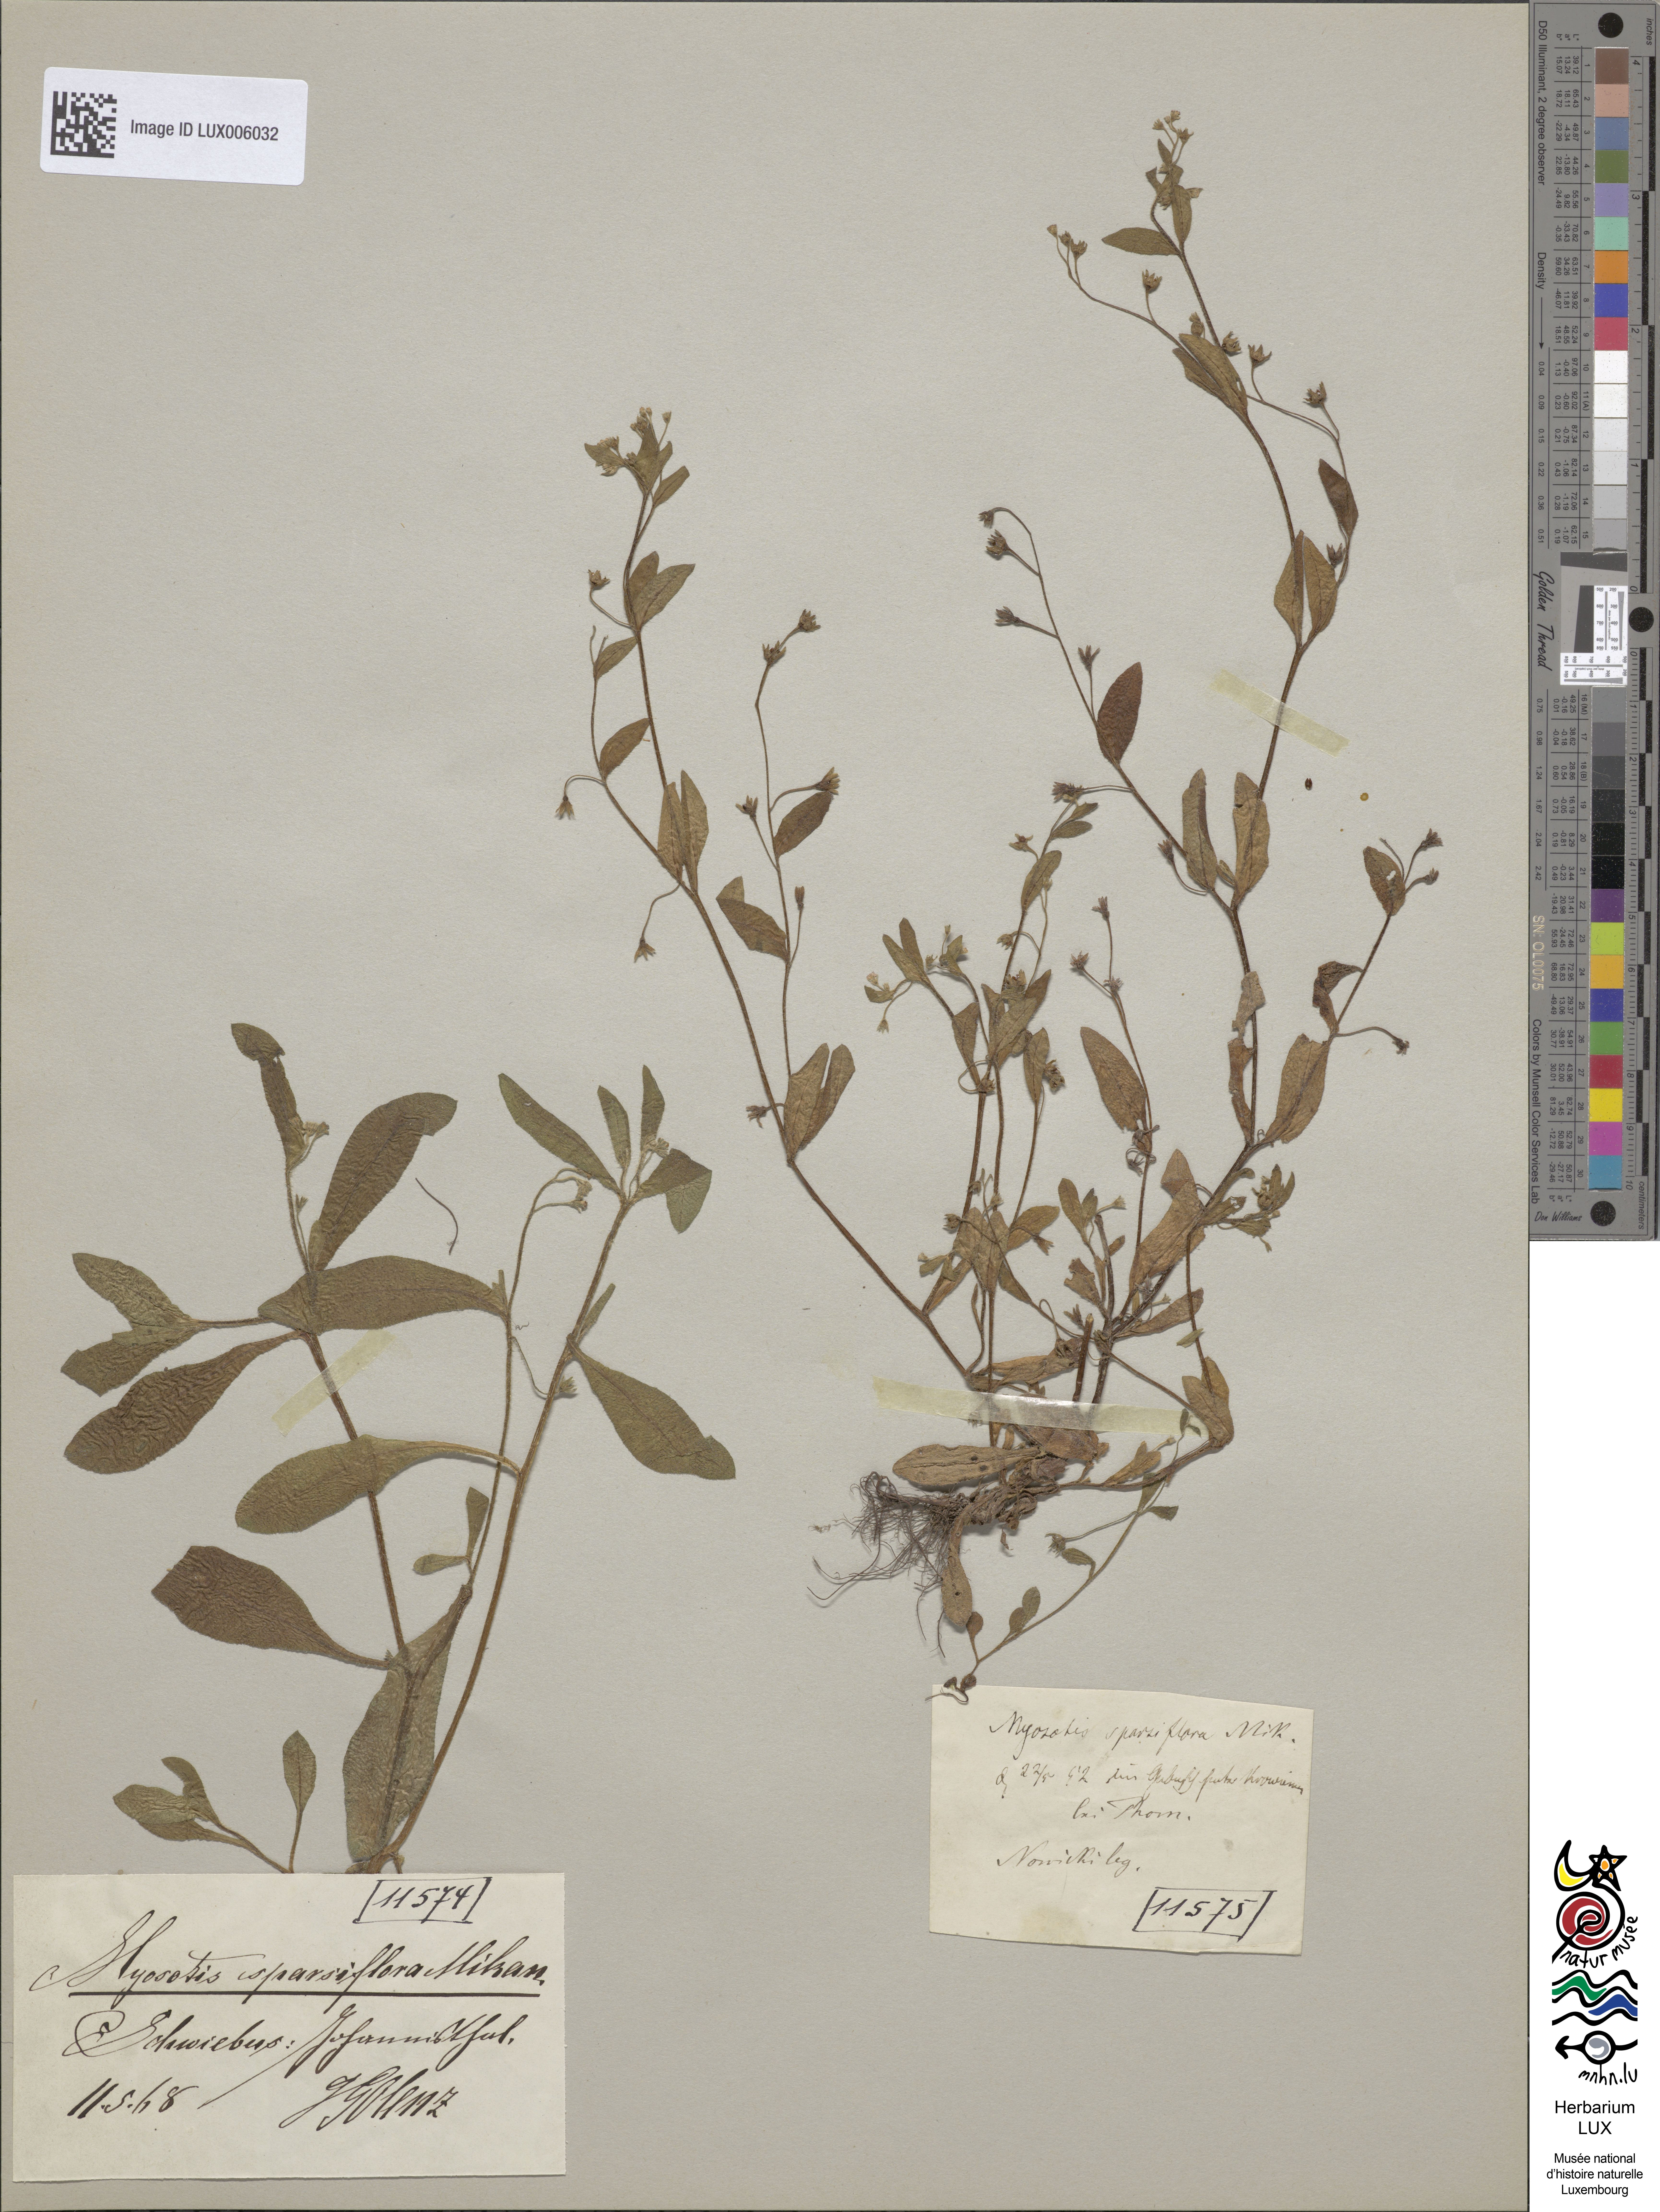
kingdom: Plantae
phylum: Tracheophyta
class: Magnoliopsida
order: Boraginales
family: Boraginaceae
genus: Myosotis
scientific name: Myosotis sparsiflora
